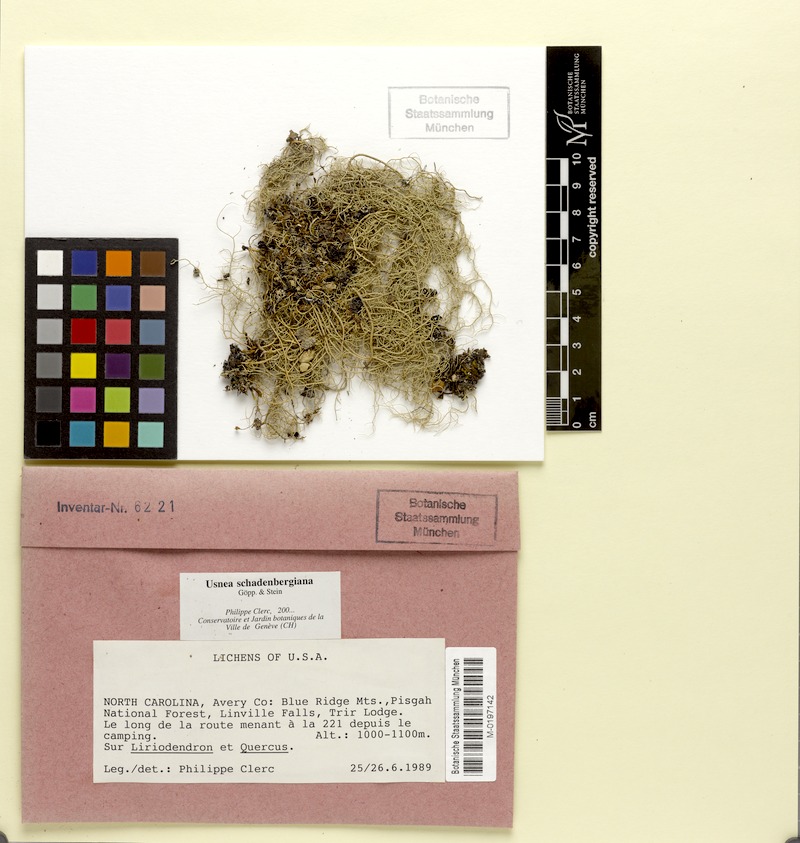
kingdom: Fungi
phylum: Ascomycota
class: Lecanoromycetes
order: Lecanorales
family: Parmeliaceae
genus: Usnea
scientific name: Usnea schadenbergiana
